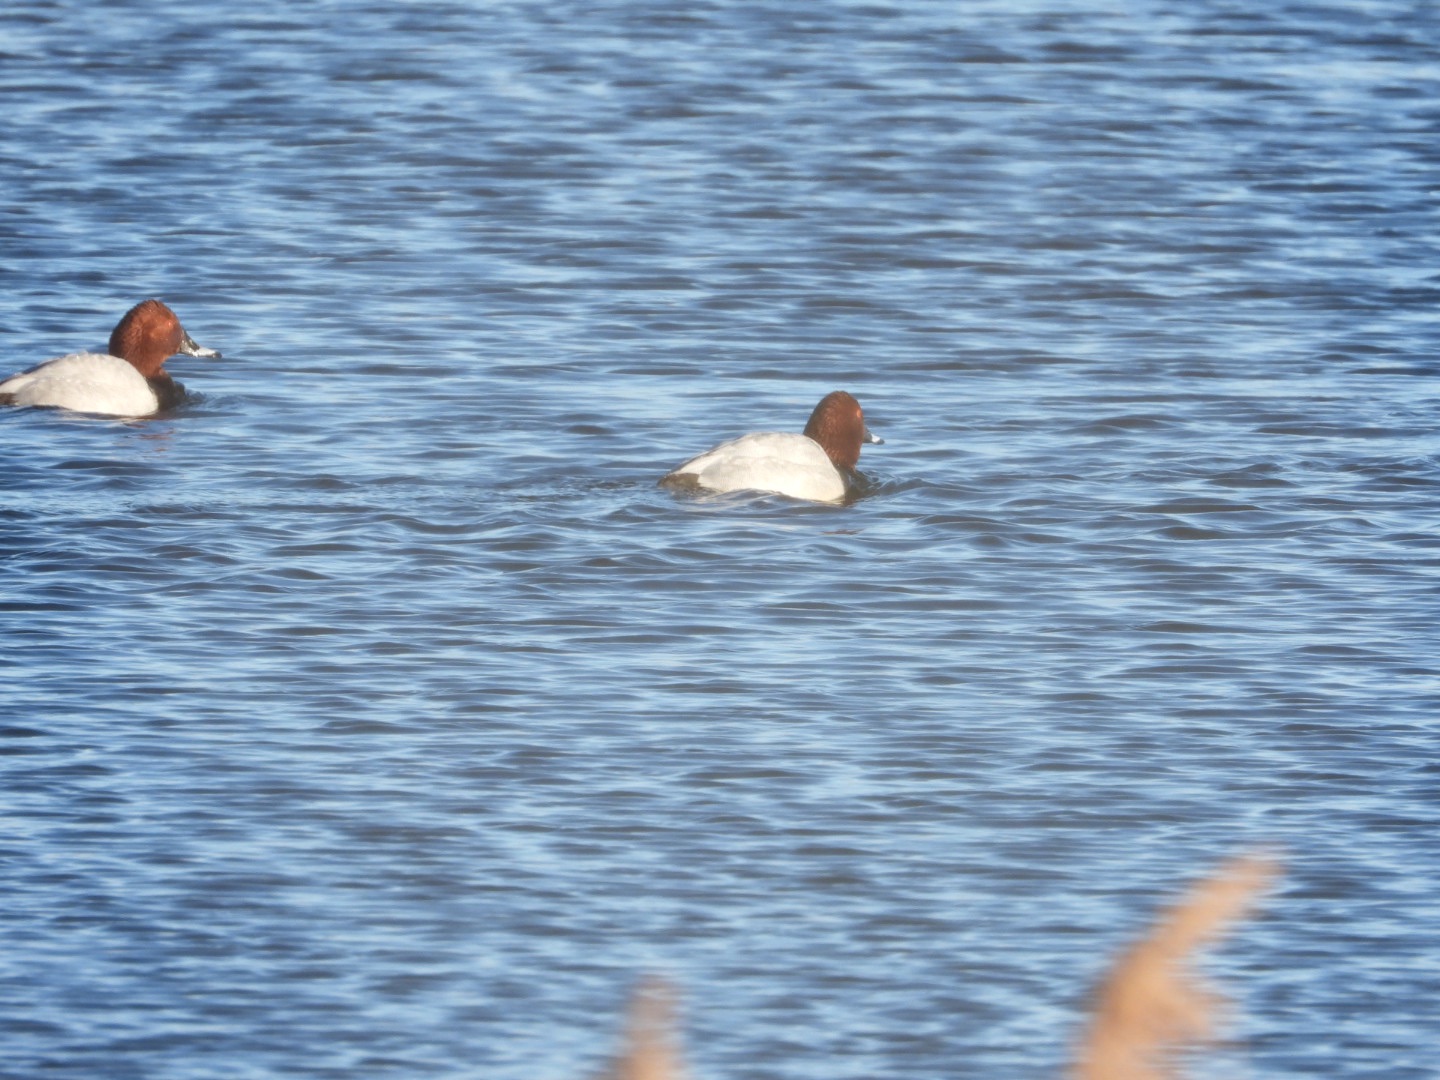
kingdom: Animalia
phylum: Chordata
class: Aves
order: Anseriformes
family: Anatidae
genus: Aythya
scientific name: Aythya ferina
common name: Taffeland
